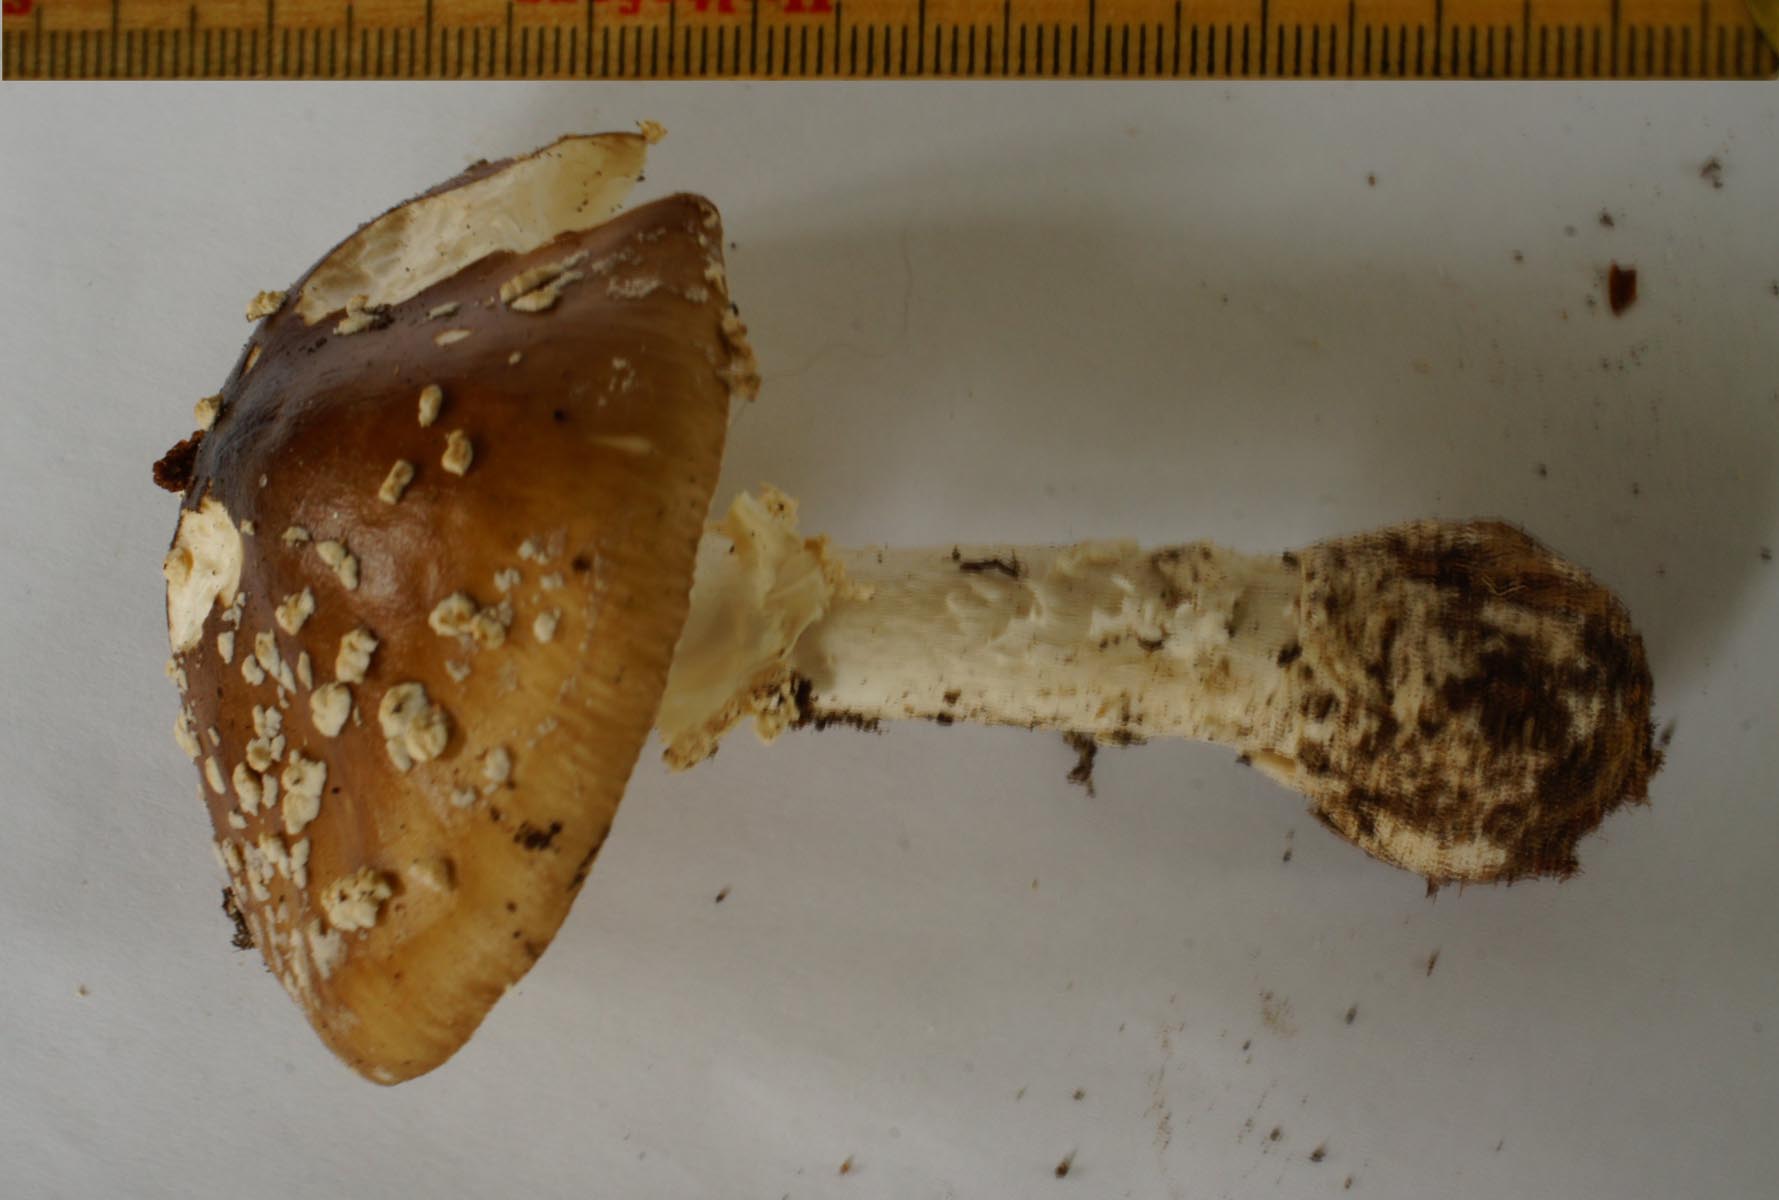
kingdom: Fungi
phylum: Basidiomycota
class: Agaricomycetes
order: Agaricales
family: Amanitaceae
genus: Amanita
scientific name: Amanita pantherina
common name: panter-fluesvamp
